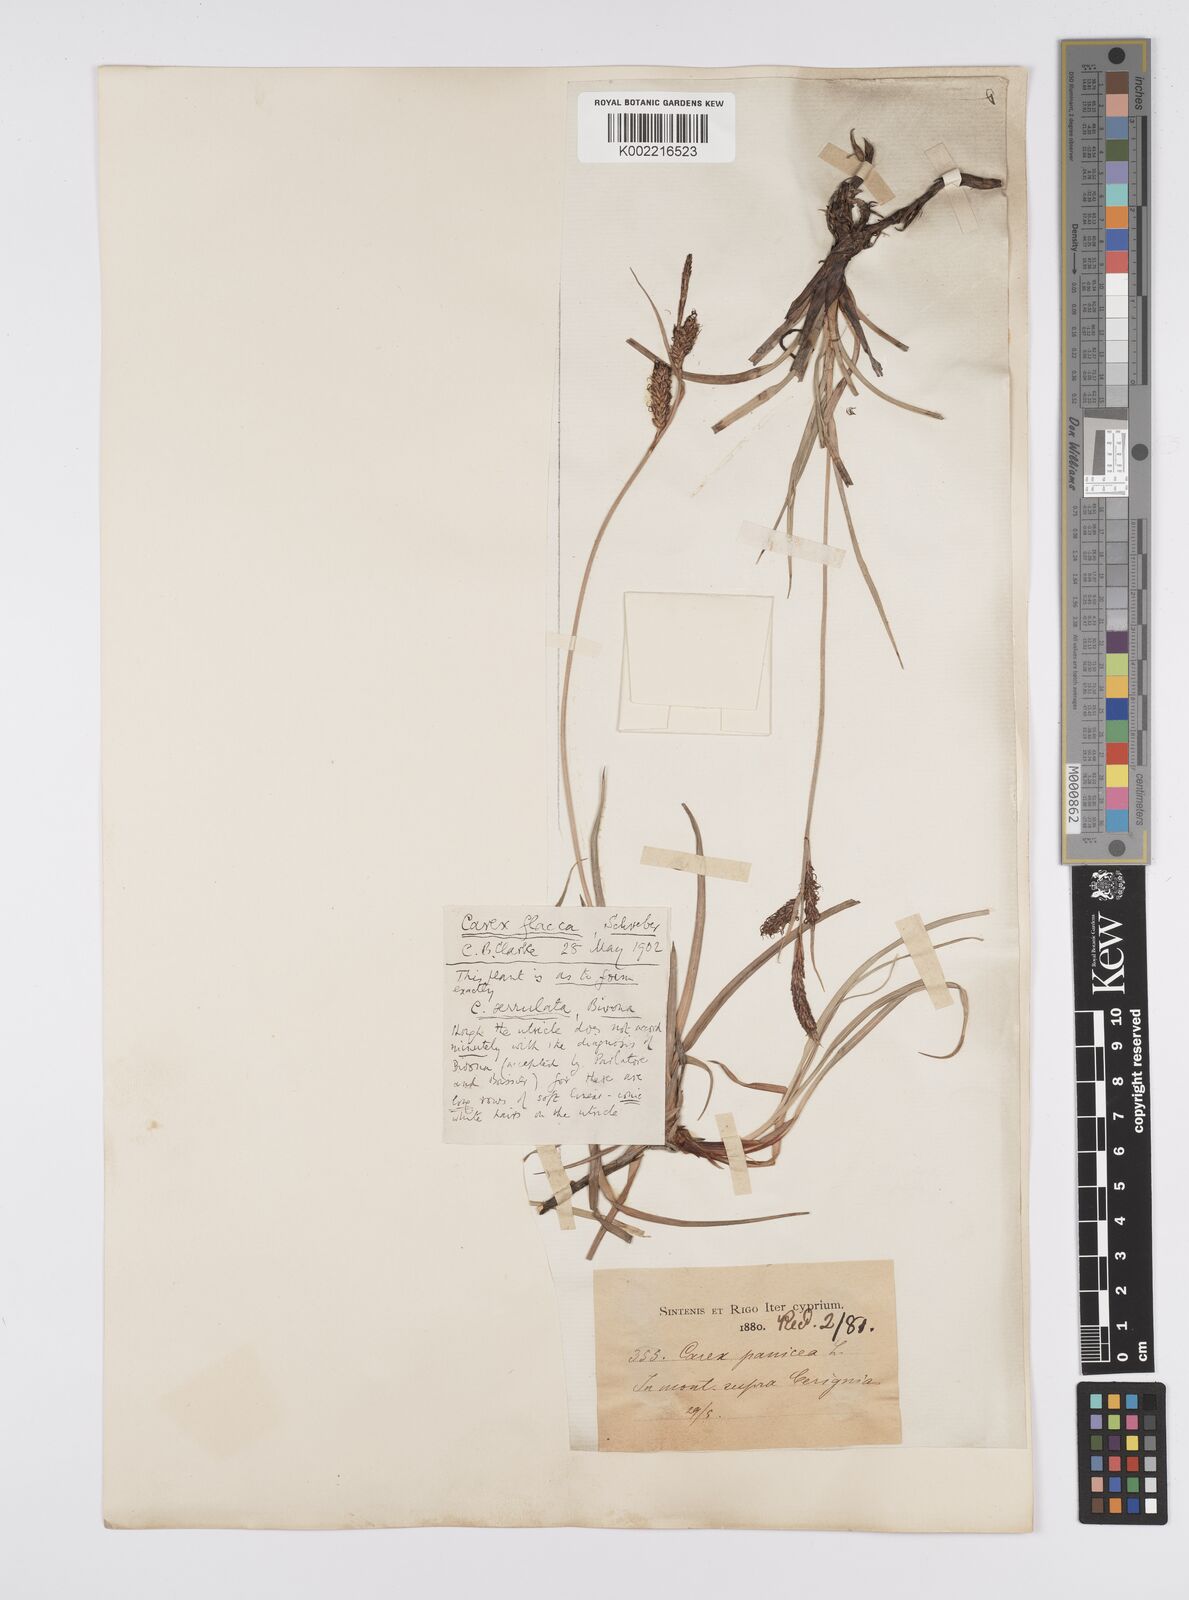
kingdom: Plantae
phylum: Tracheophyta
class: Liliopsida
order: Poales
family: Cyperaceae
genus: Carex
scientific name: Carex flacca
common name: Glaucous sedge
